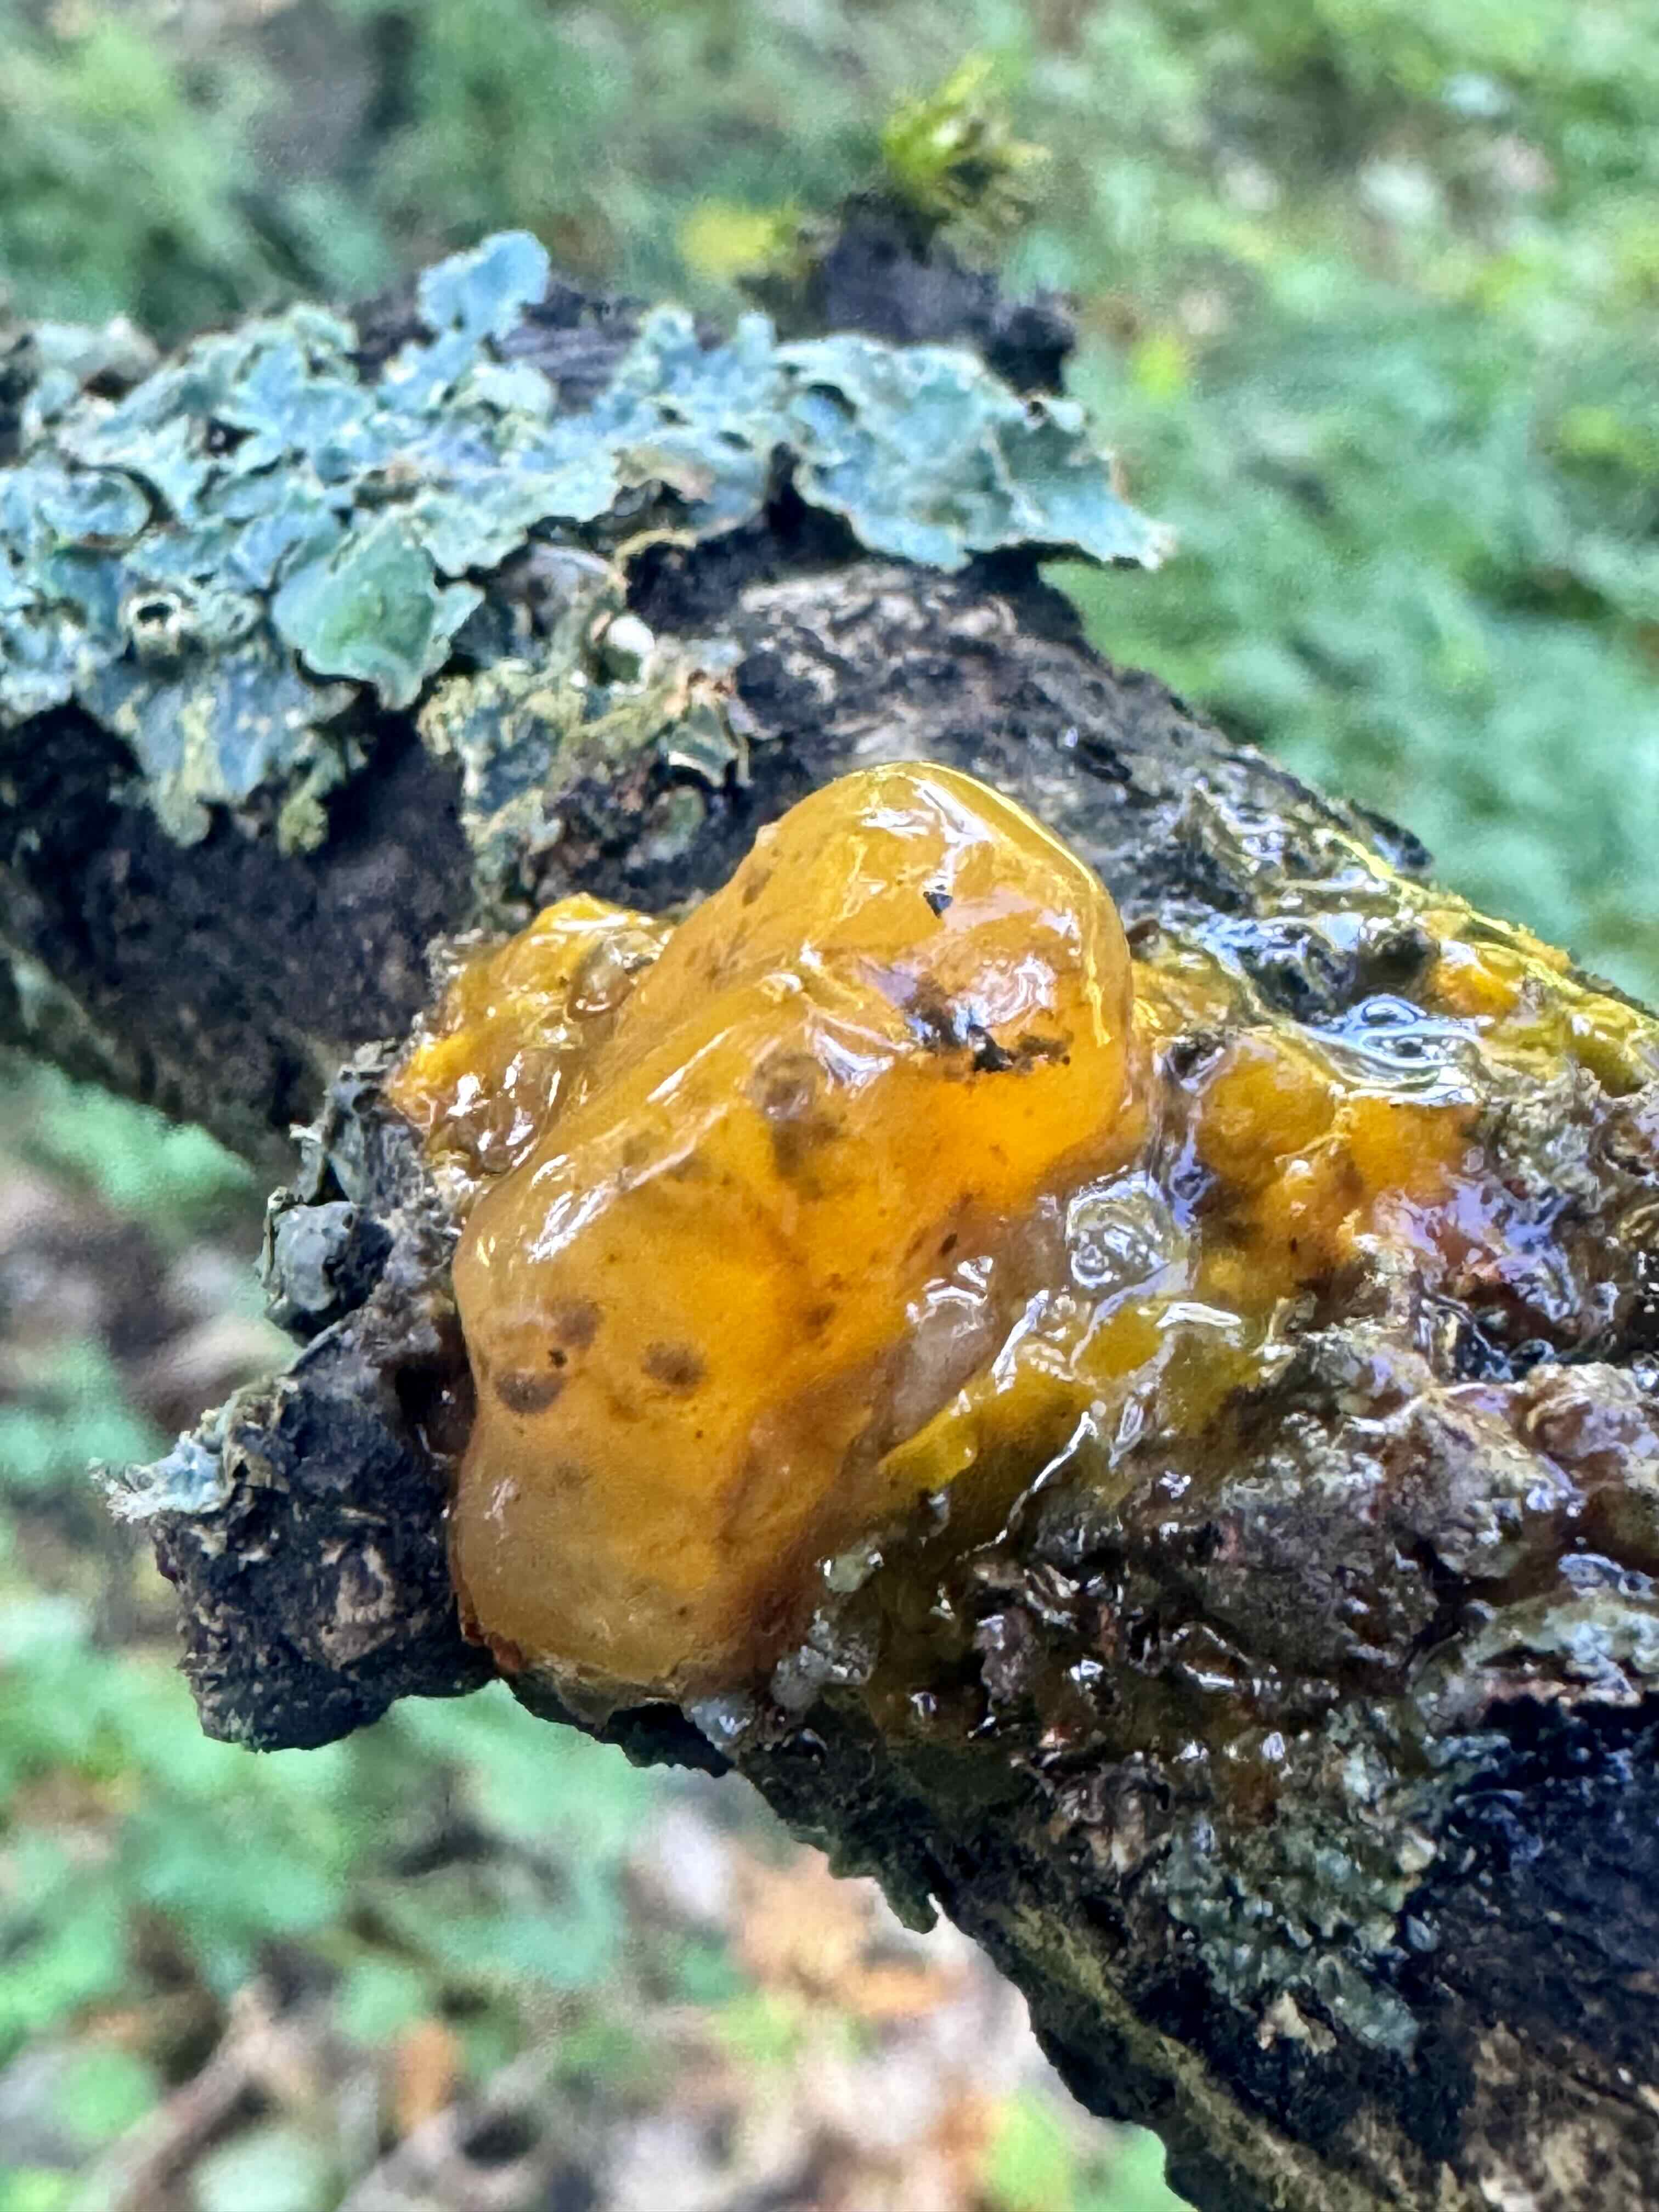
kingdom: Fungi
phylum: Basidiomycota
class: Tremellomycetes
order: Tremellales
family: Tremellaceae
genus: Tremella
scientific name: Tremella mesenterica
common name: gul bævresvamp
